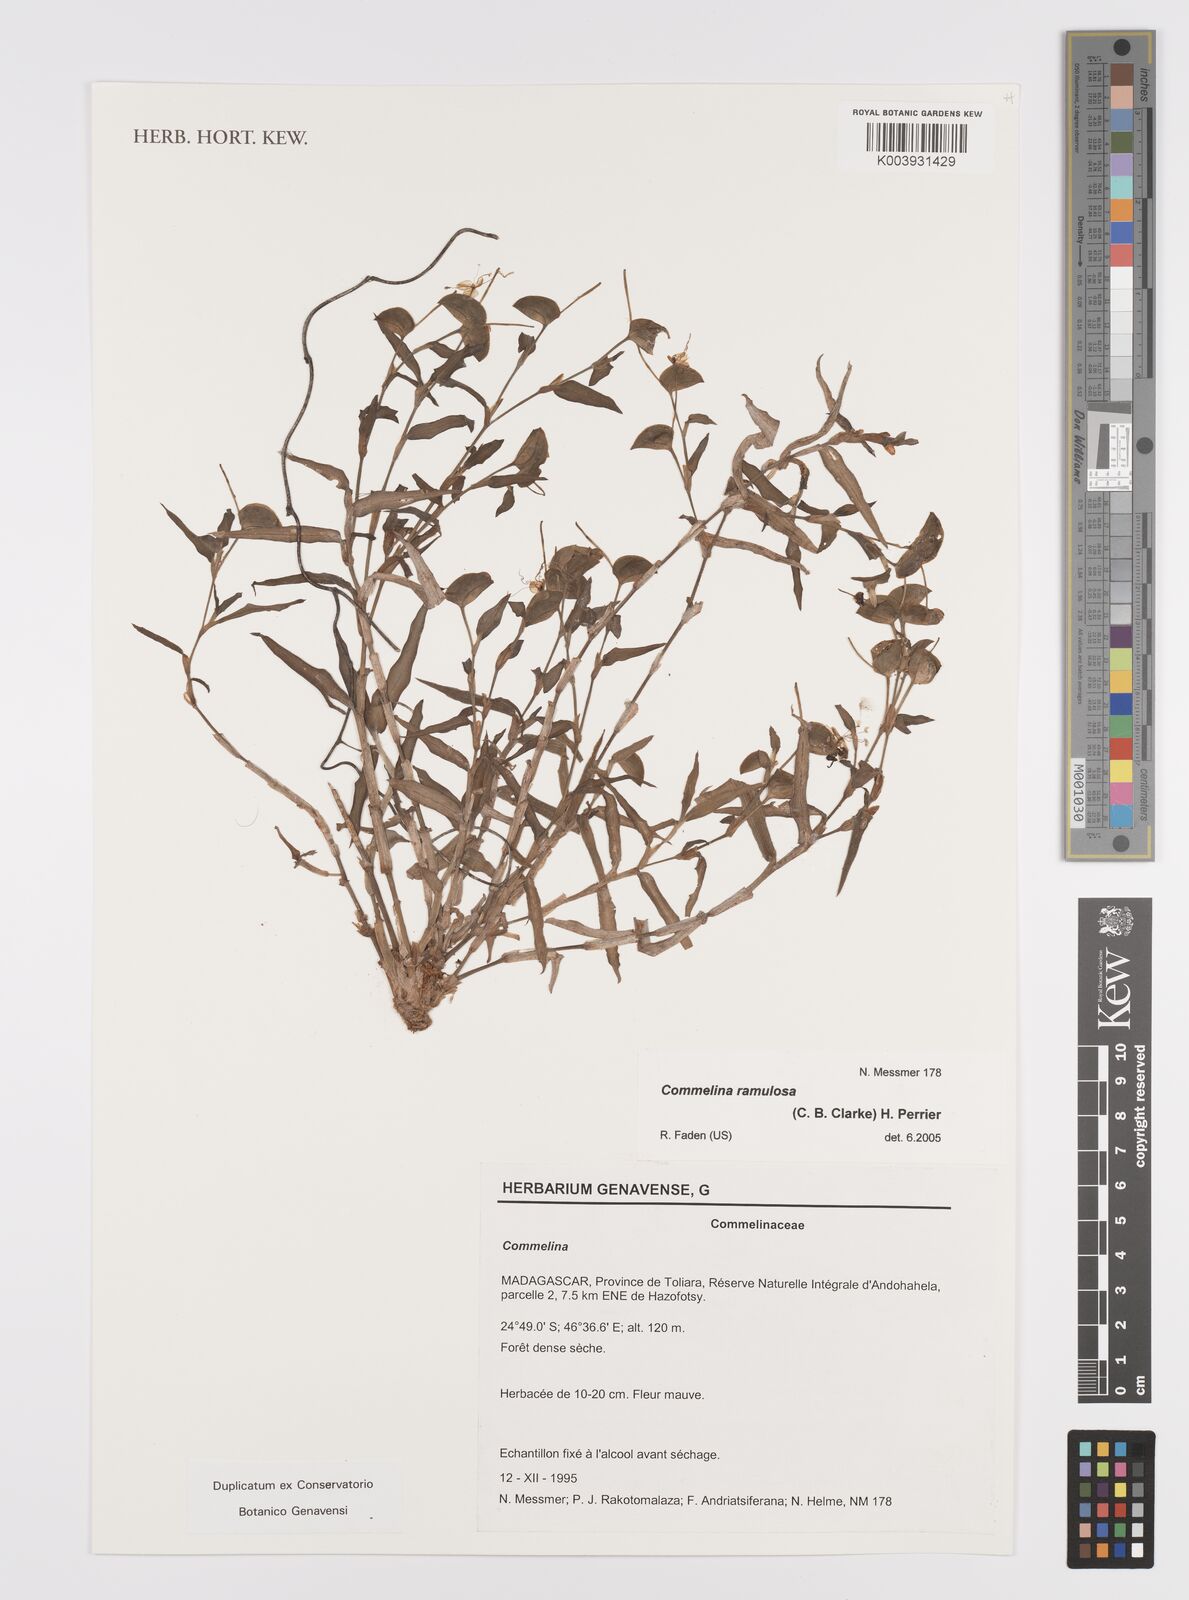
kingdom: Plantae
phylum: Tracheophyta
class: Liliopsida
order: Commelinales
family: Commelinaceae
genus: Commelina
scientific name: Commelina ramulosa
